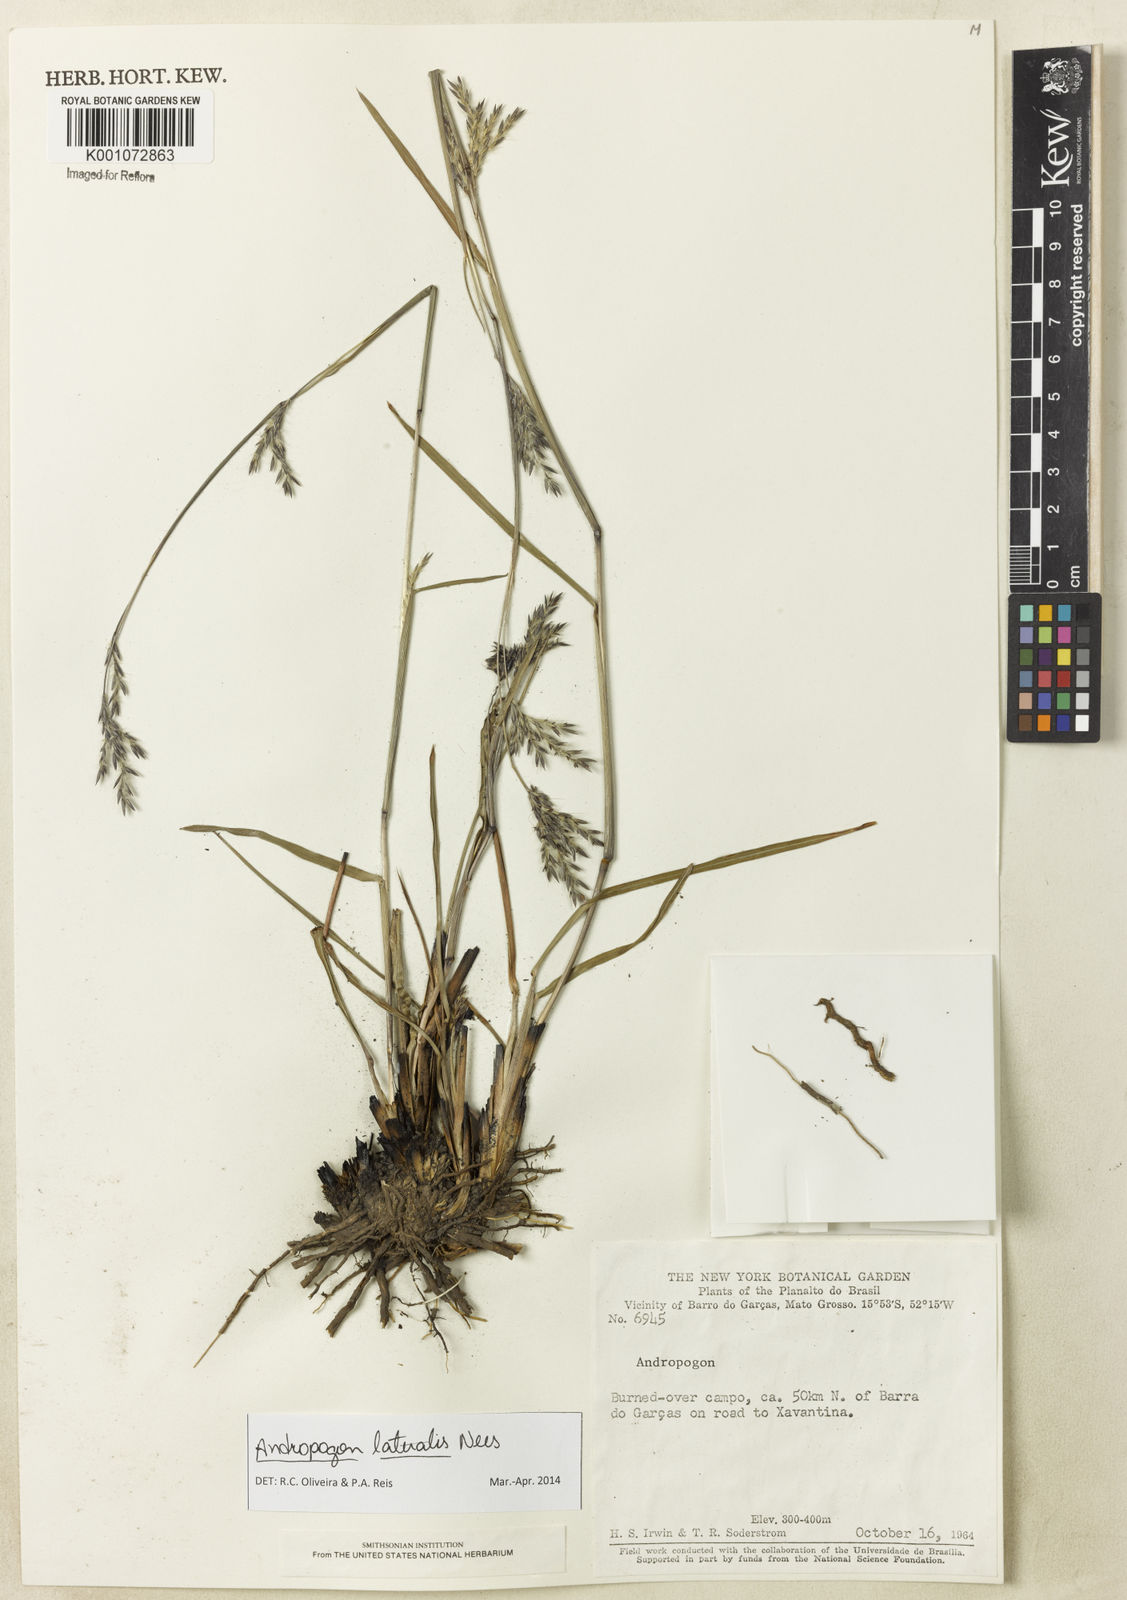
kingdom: Plantae
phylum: Tracheophyta
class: Liliopsida
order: Poales
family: Poaceae
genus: Andropogon
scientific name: Andropogon lateralis
